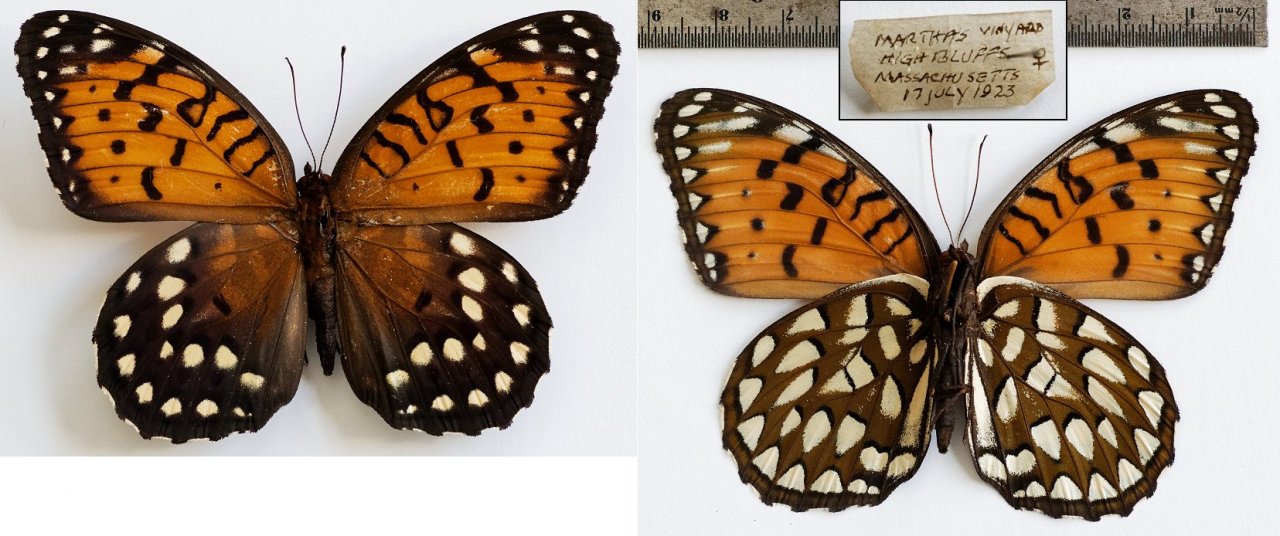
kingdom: Animalia
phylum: Arthropoda
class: Insecta
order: Lepidoptera
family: Nymphalidae
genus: Speyeria
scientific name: Speyeria idalia
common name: Regal Fritillary
